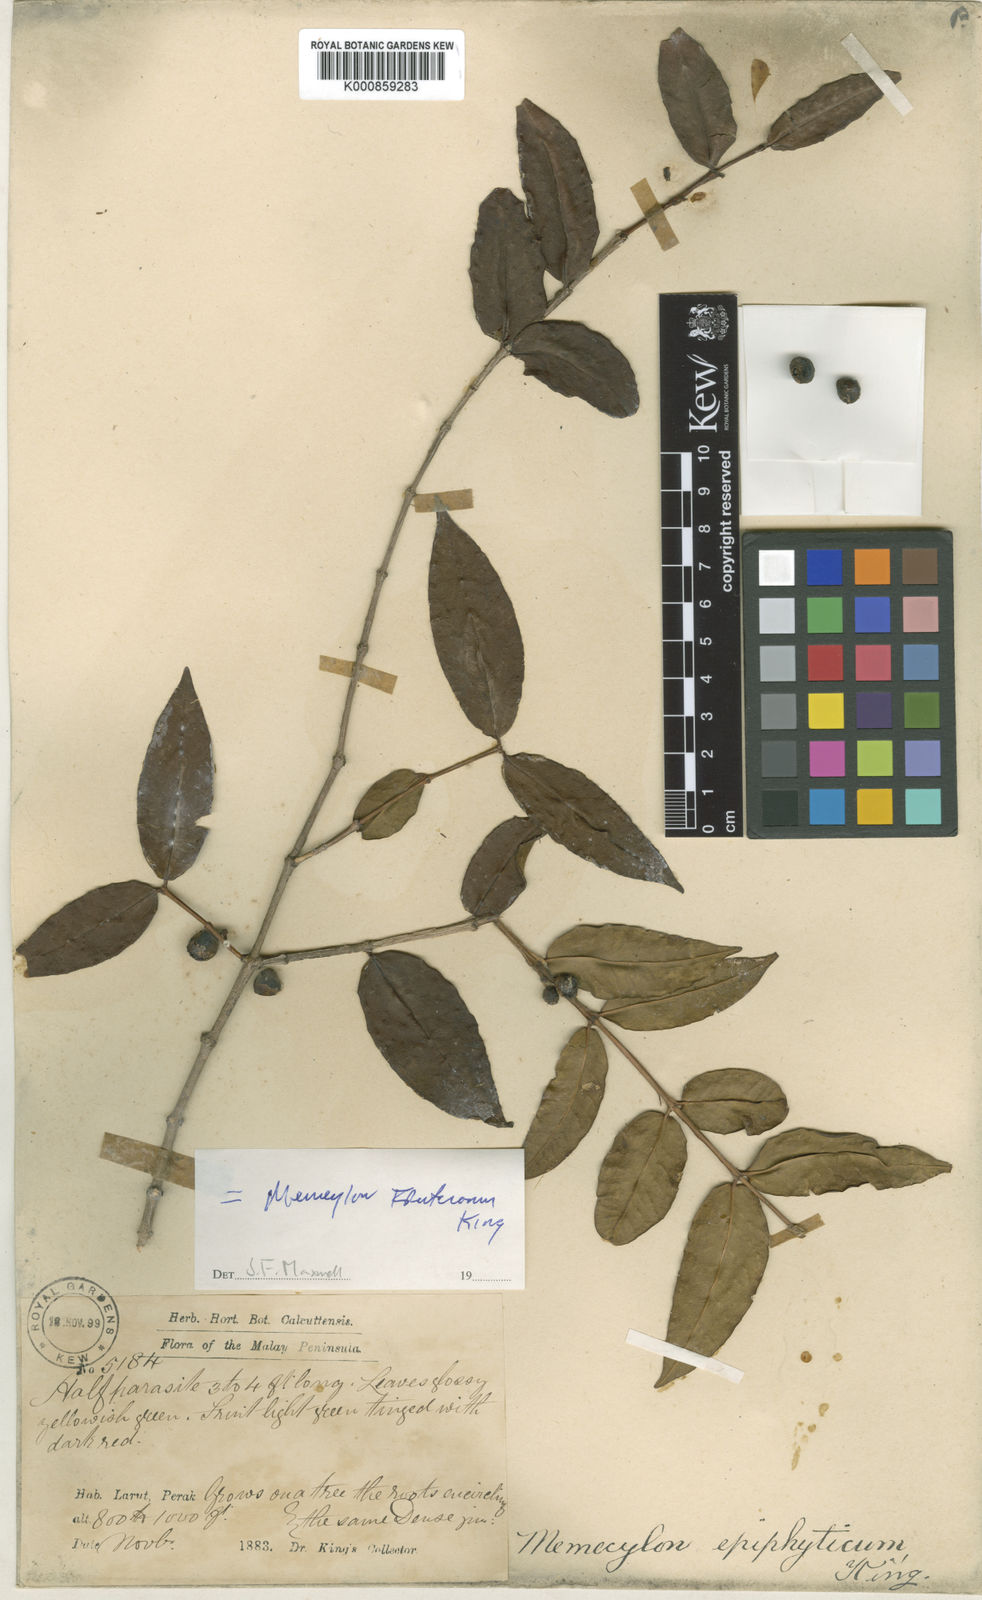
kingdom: Plantae
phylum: Tracheophyta
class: Magnoliopsida
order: Myrtales
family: Melastomataceae
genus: Memecylon
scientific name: Memecylon fruticosum
